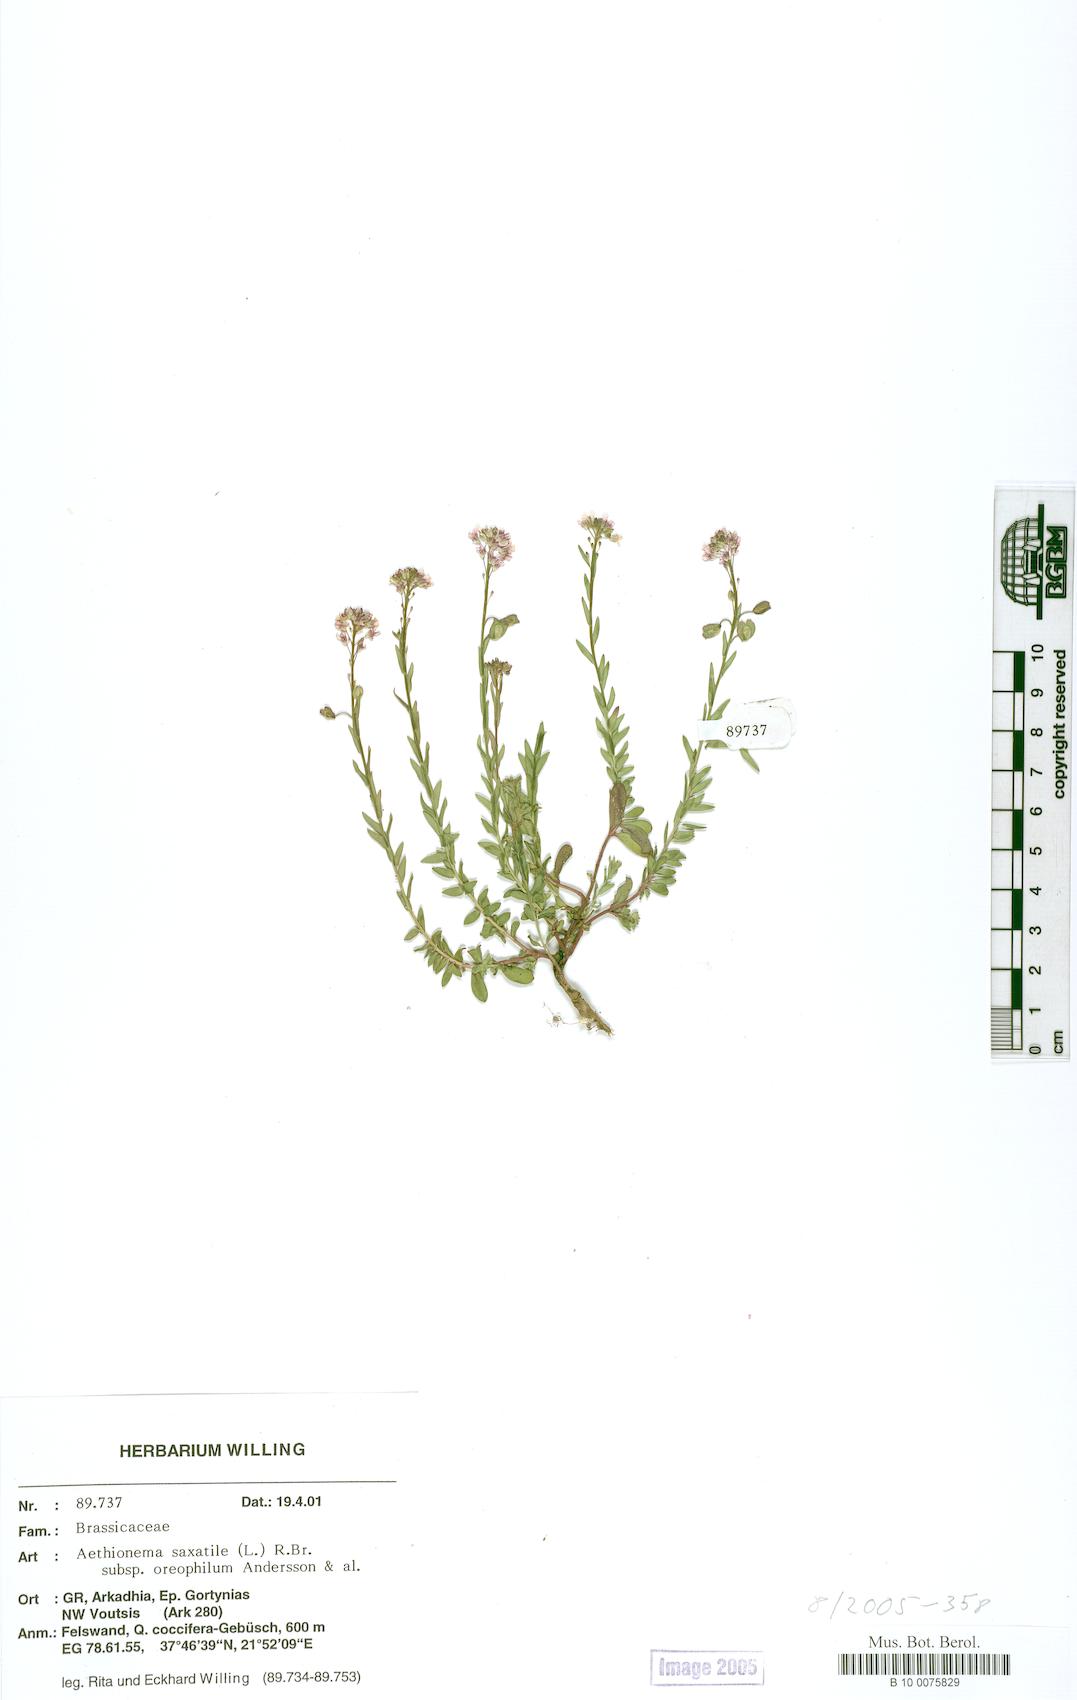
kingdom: Plantae
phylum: Tracheophyta
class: Magnoliopsida
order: Brassicales
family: Brassicaceae
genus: Aethionema
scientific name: Aethionema saxatile
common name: Burnt candytuft
